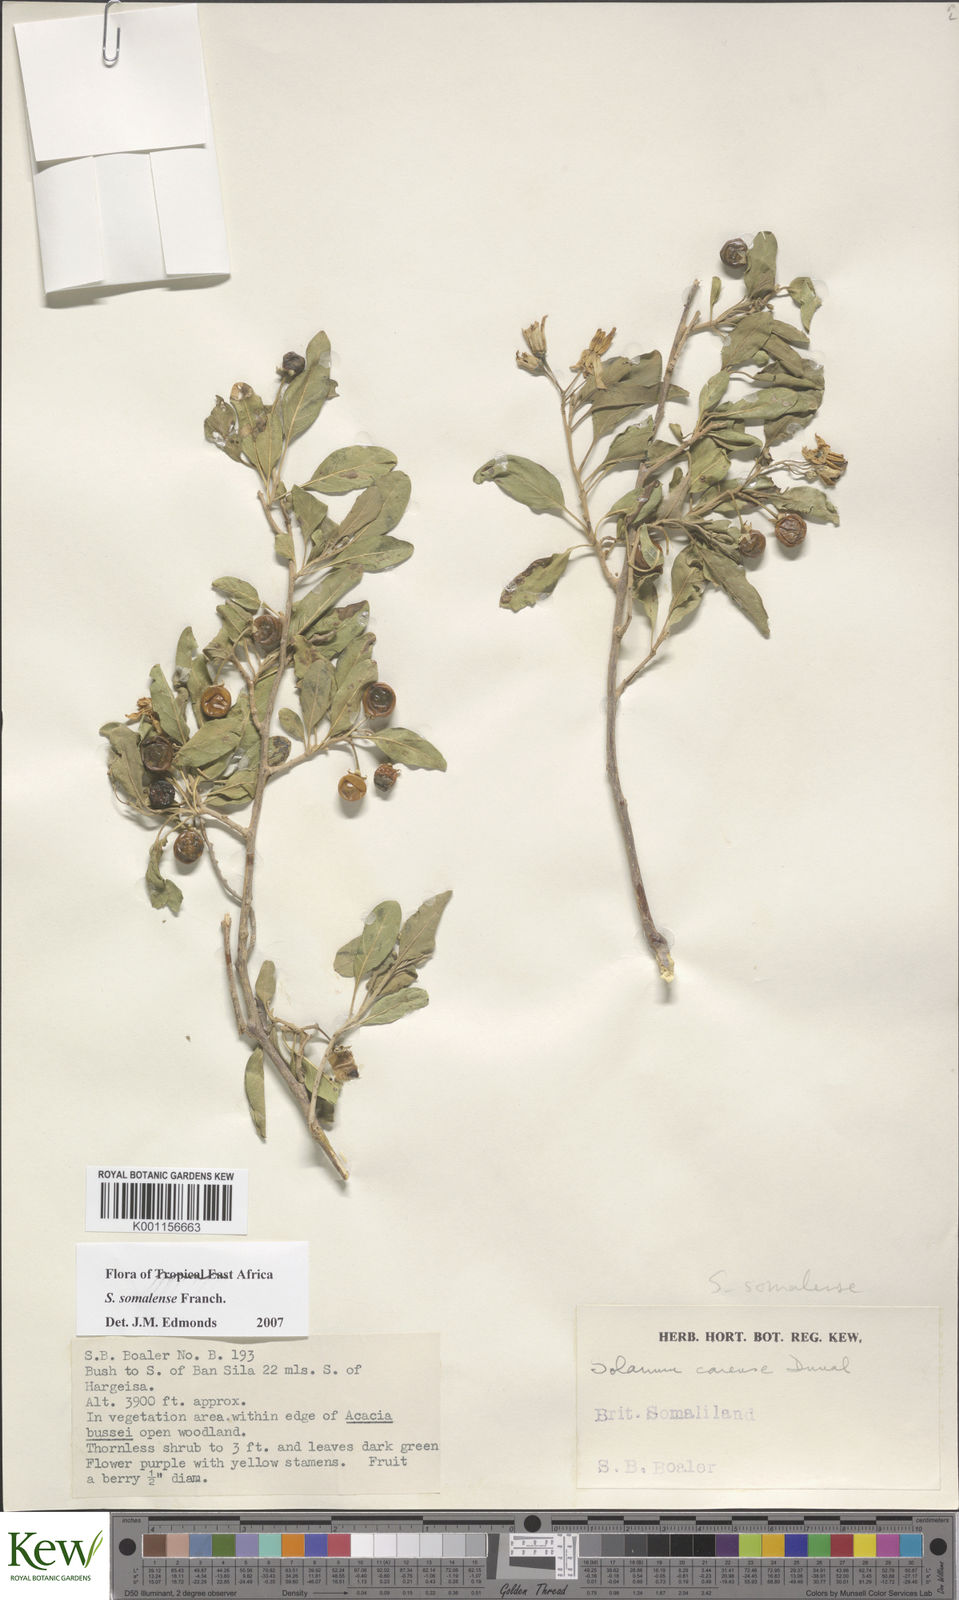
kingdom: Plantae
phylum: Tracheophyta
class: Magnoliopsida
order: Solanales
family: Solanaceae
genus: Solanum
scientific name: Solanum somalense
